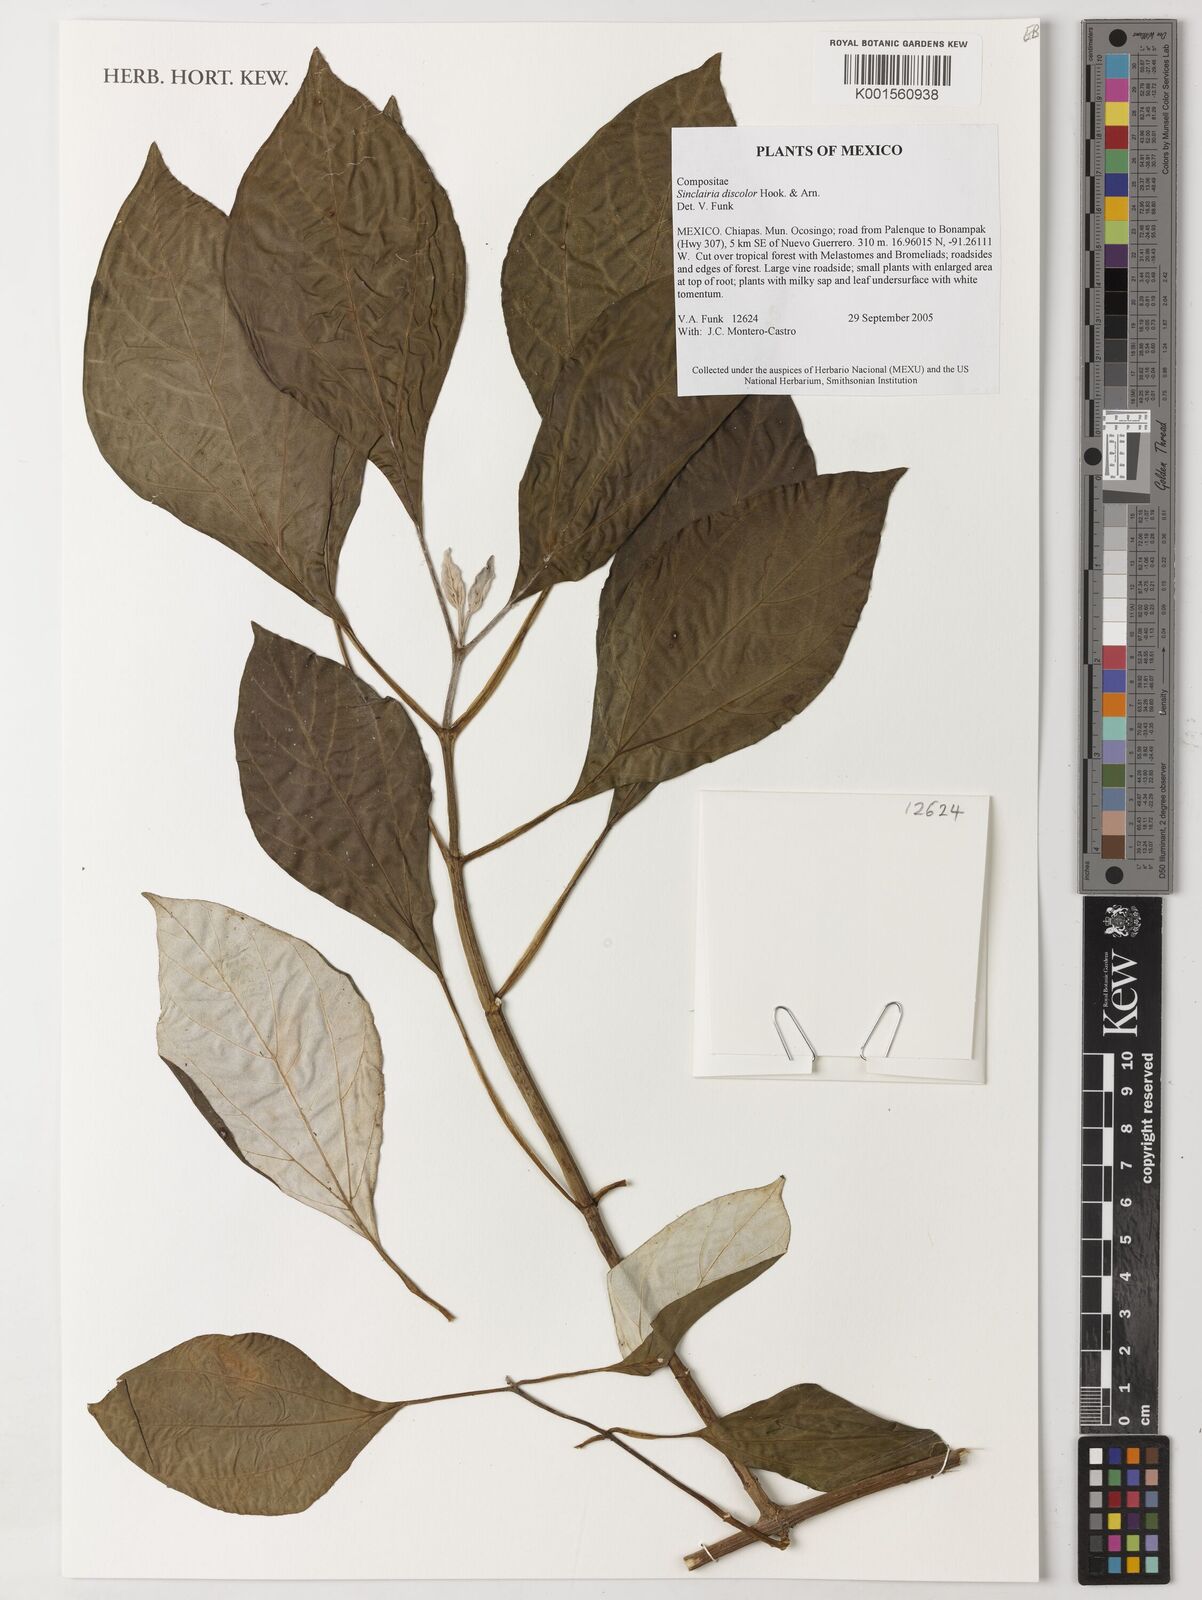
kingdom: Plantae
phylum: Tracheophyta
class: Magnoliopsida
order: Asterales
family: Asteraceae
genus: Sinclairia
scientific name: Sinclairia discolor
